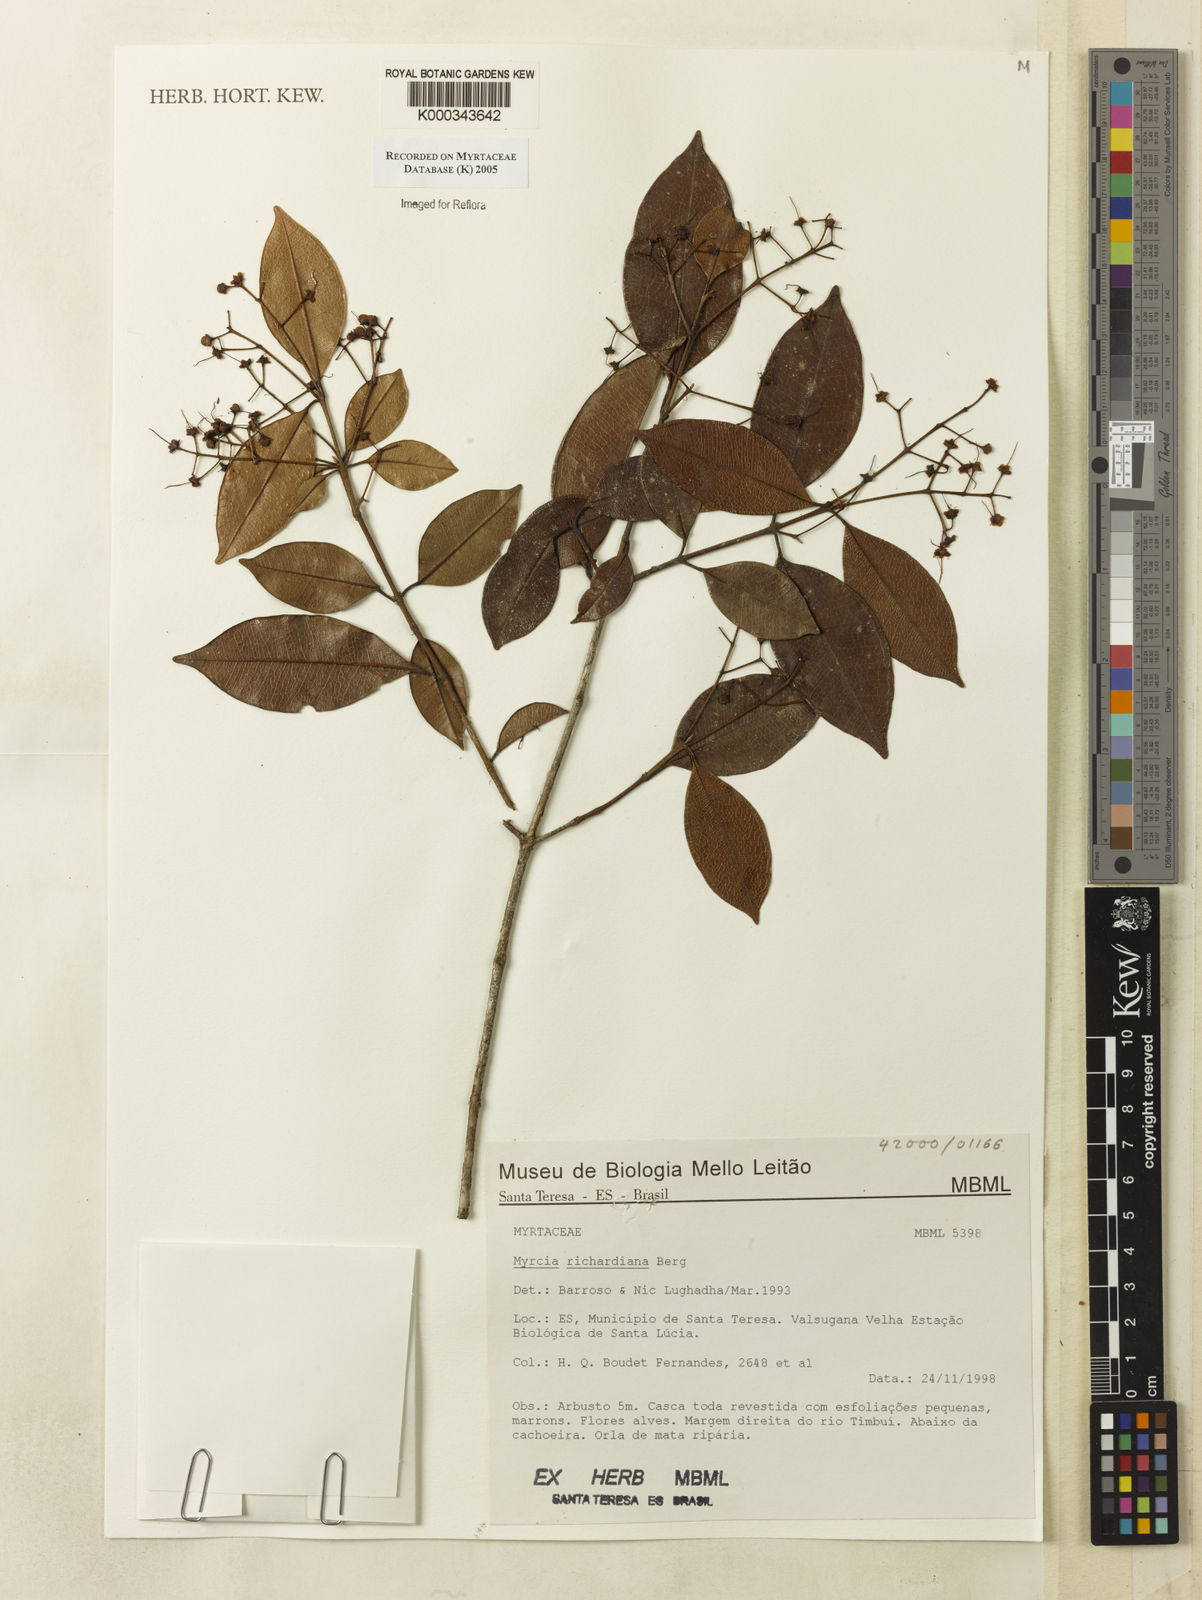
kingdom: Plantae
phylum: Tracheophyta
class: Magnoliopsida
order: Myrtales
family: Myrtaceae
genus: Myrcia
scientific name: Myrcia richardiana
